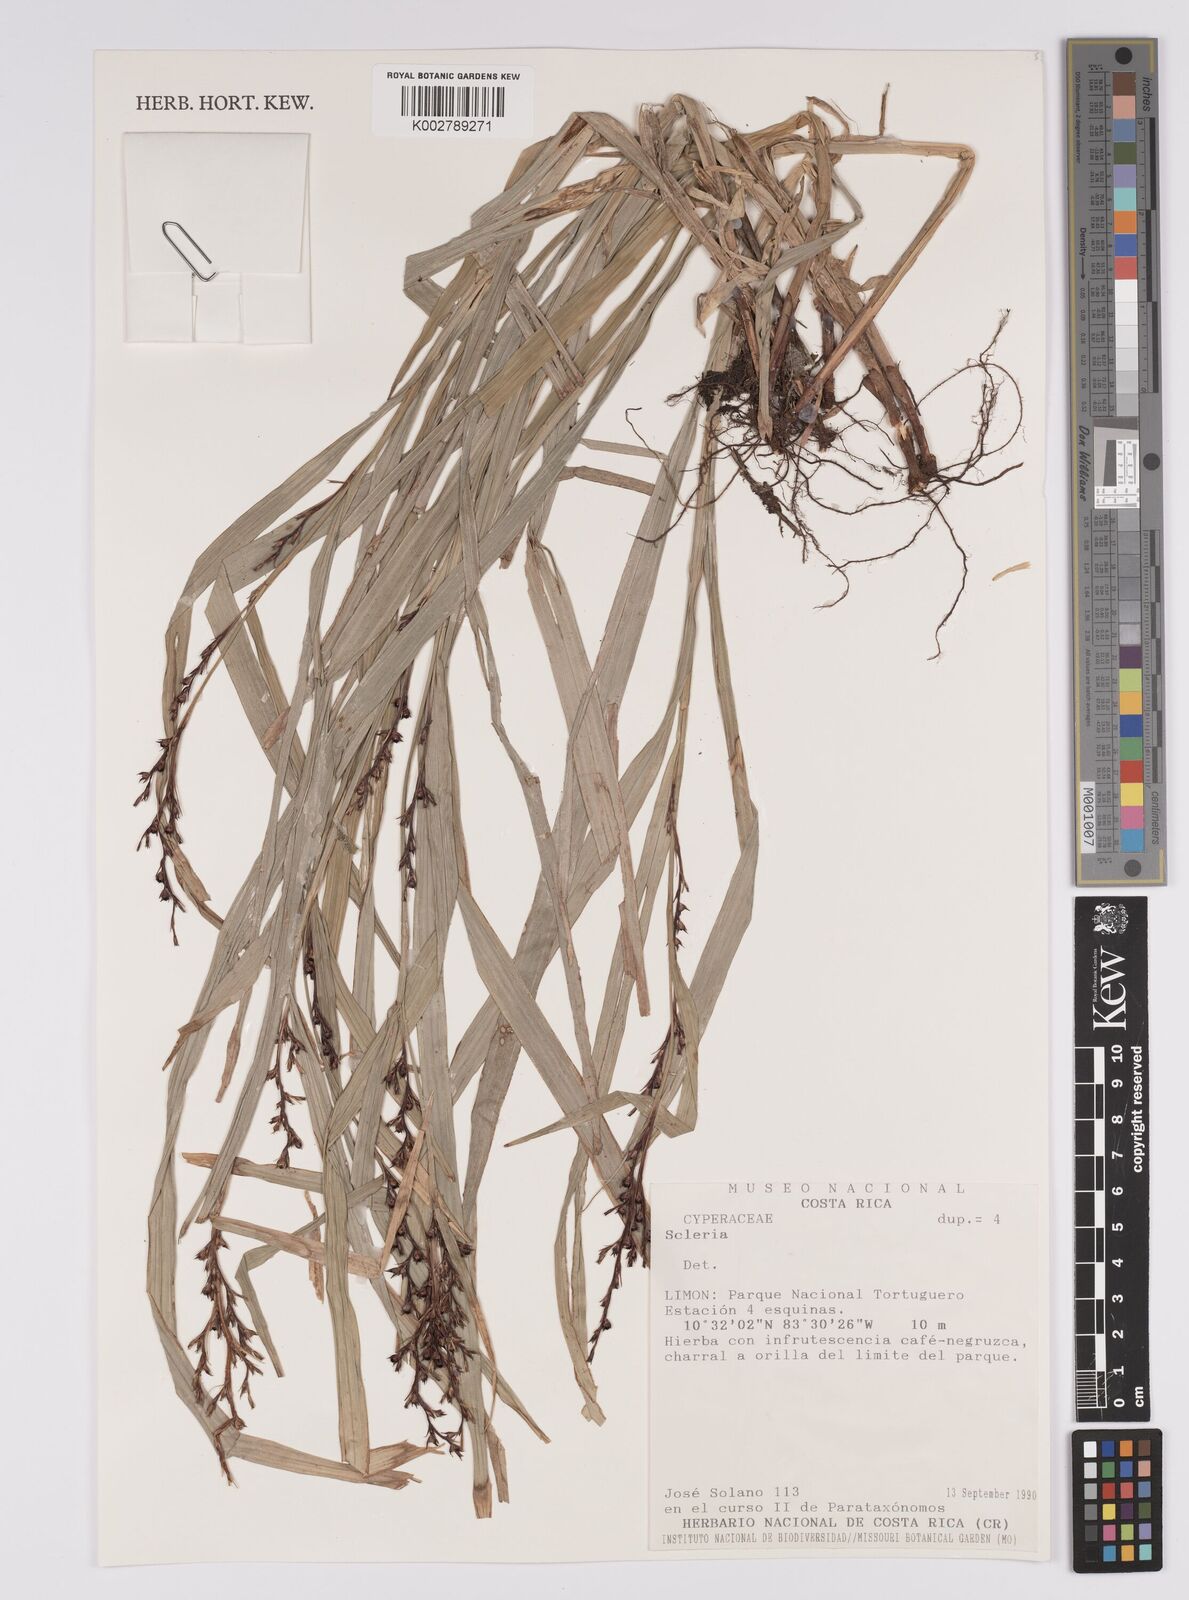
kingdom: Plantae
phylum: Tracheophyta
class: Liliopsida
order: Poales
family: Cyperaceae
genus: Scleria
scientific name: Scleria
